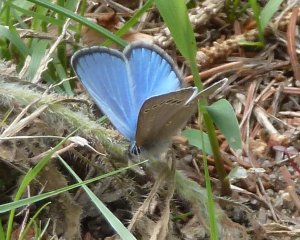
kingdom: Animalia
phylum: Arthropoda
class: Insecta
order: Lepidoptera
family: Lycaenidae
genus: Glaucopsyche
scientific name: Glaucopsyche lygdamus
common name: Silvery Blue
